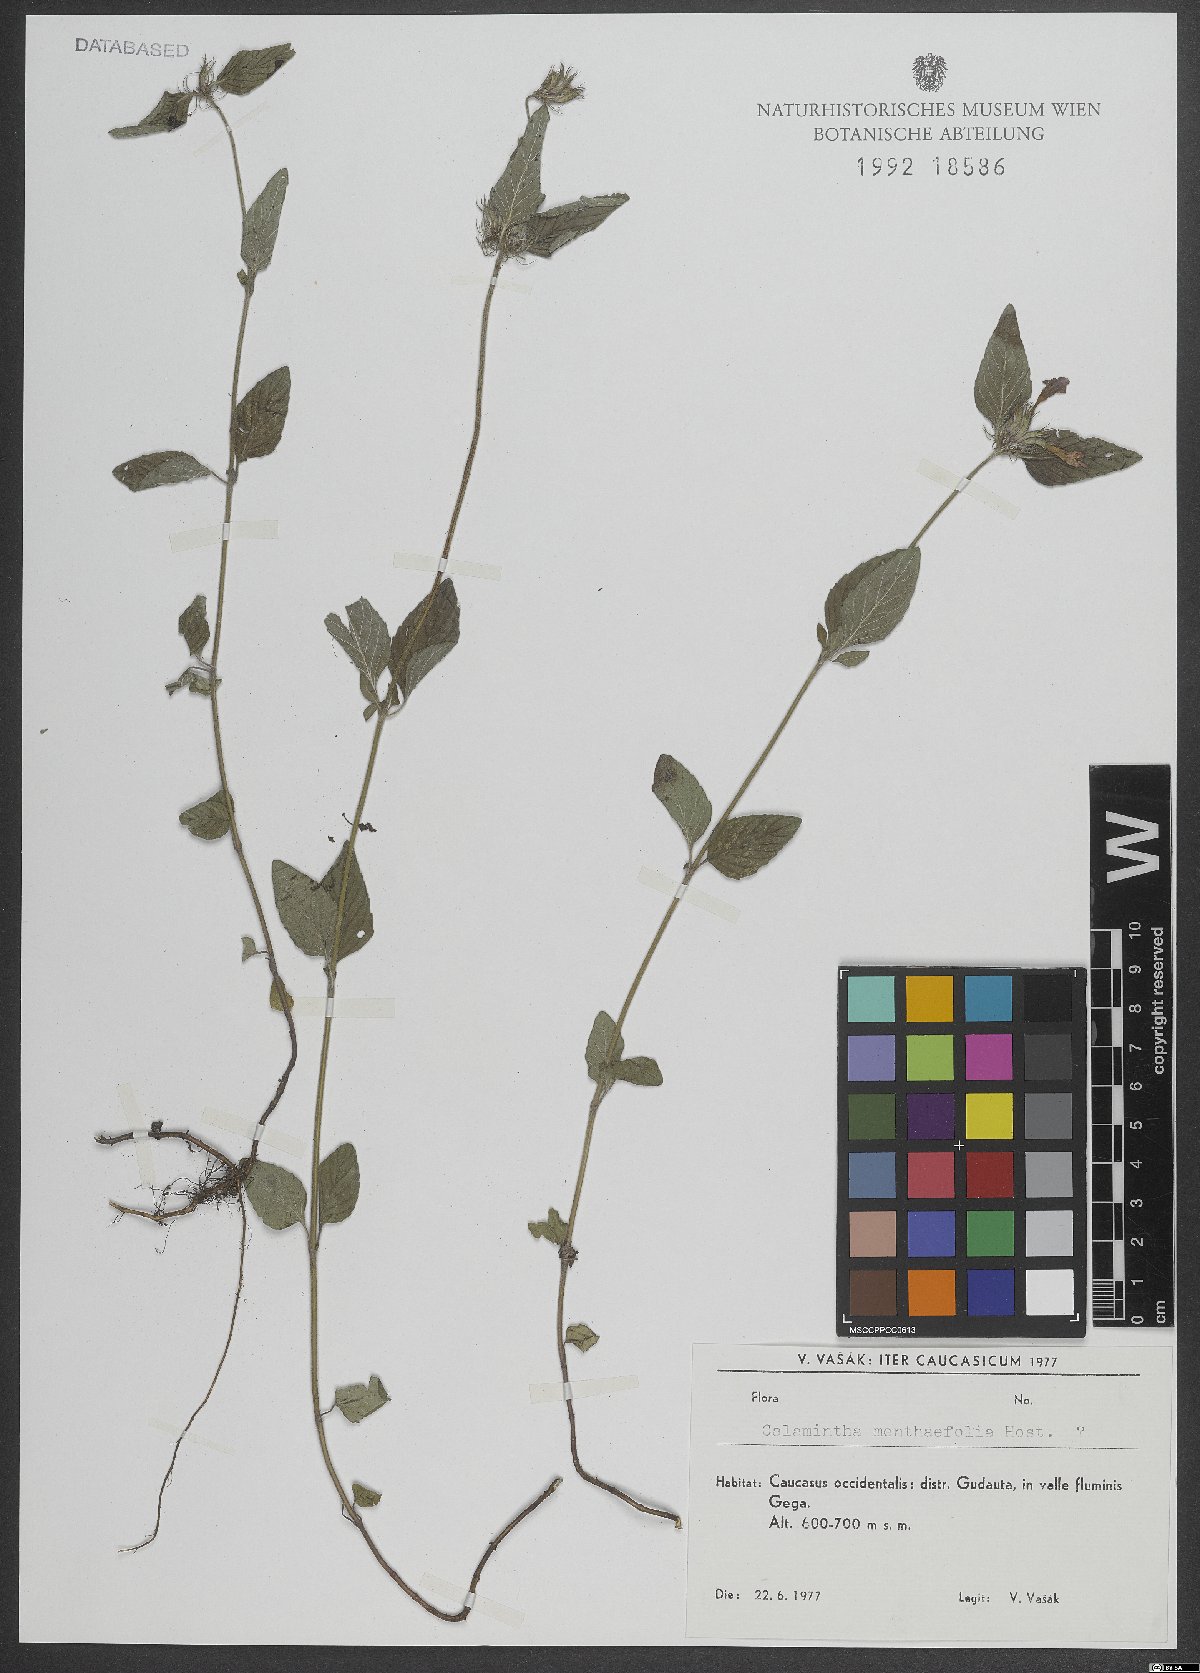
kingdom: Plantae
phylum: Tracheophyta
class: Magnoliopsida
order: Lamiales
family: Lamiaceae
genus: Clinopodium
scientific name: Clinopodium menthifolium
